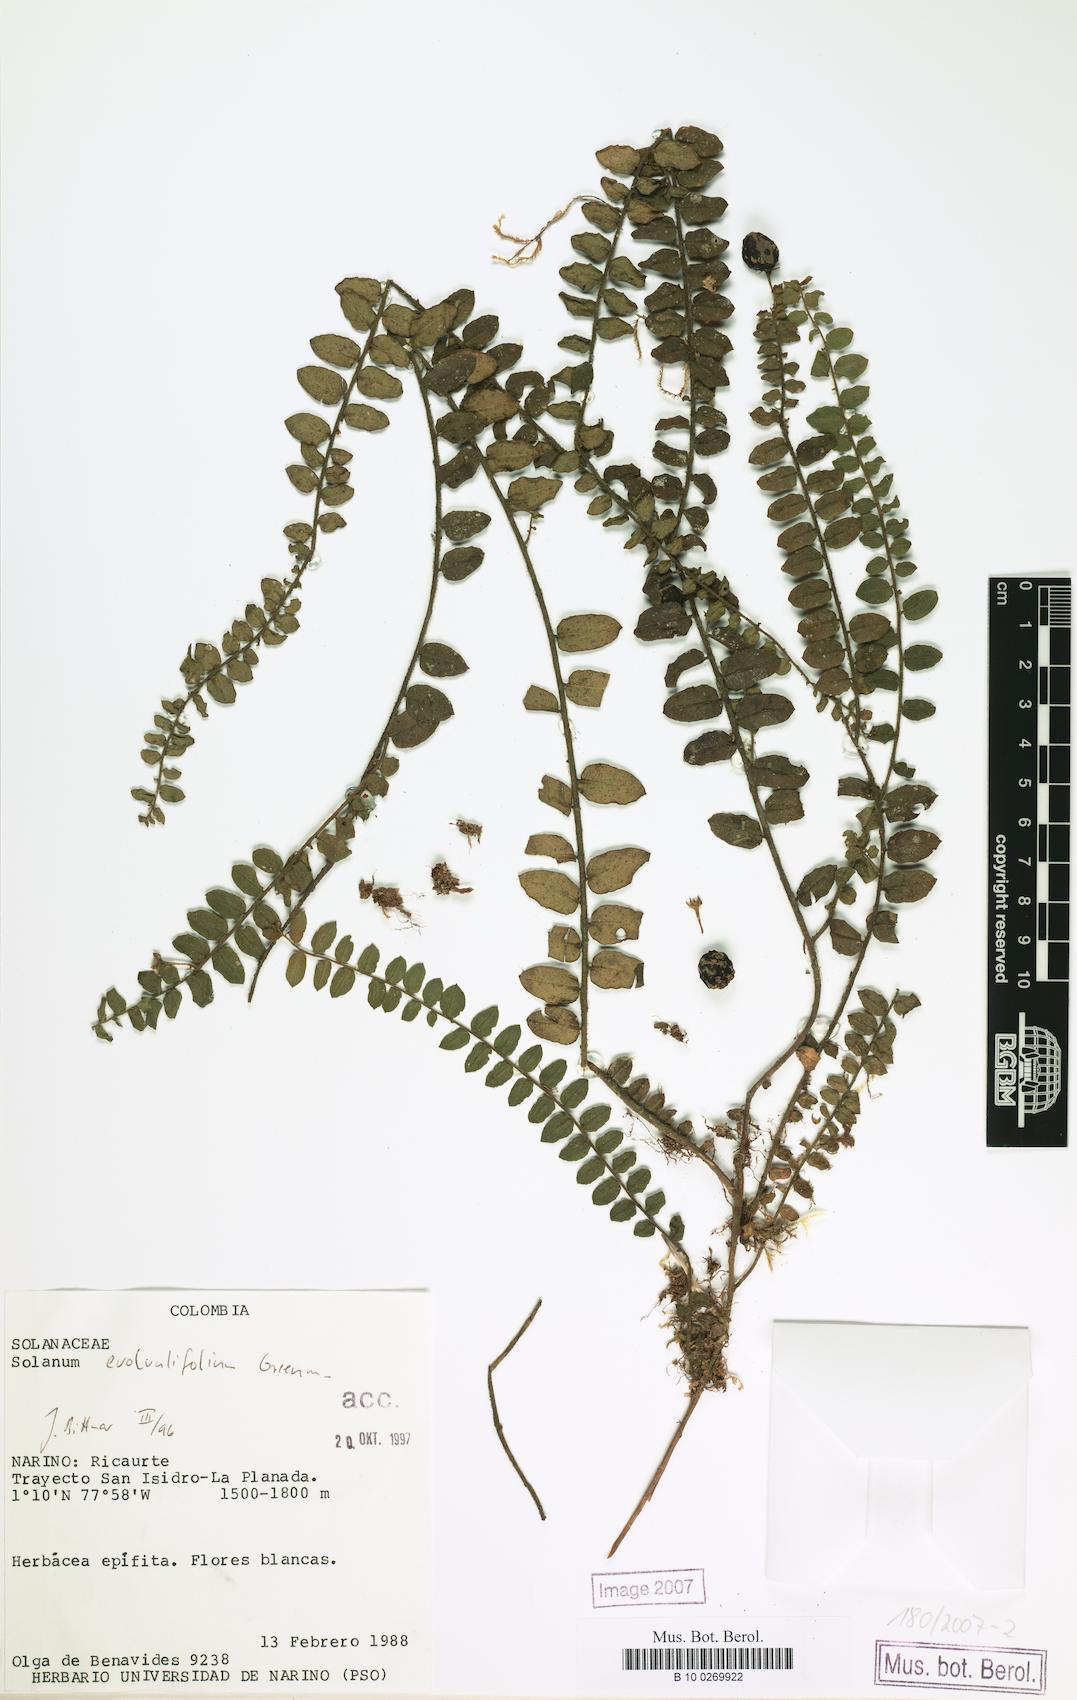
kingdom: Plantae
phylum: Tracheophyta
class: Magnoliopsida
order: Solanales
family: Solanaceae
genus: Solanum
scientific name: Solanum evolvulifolium
